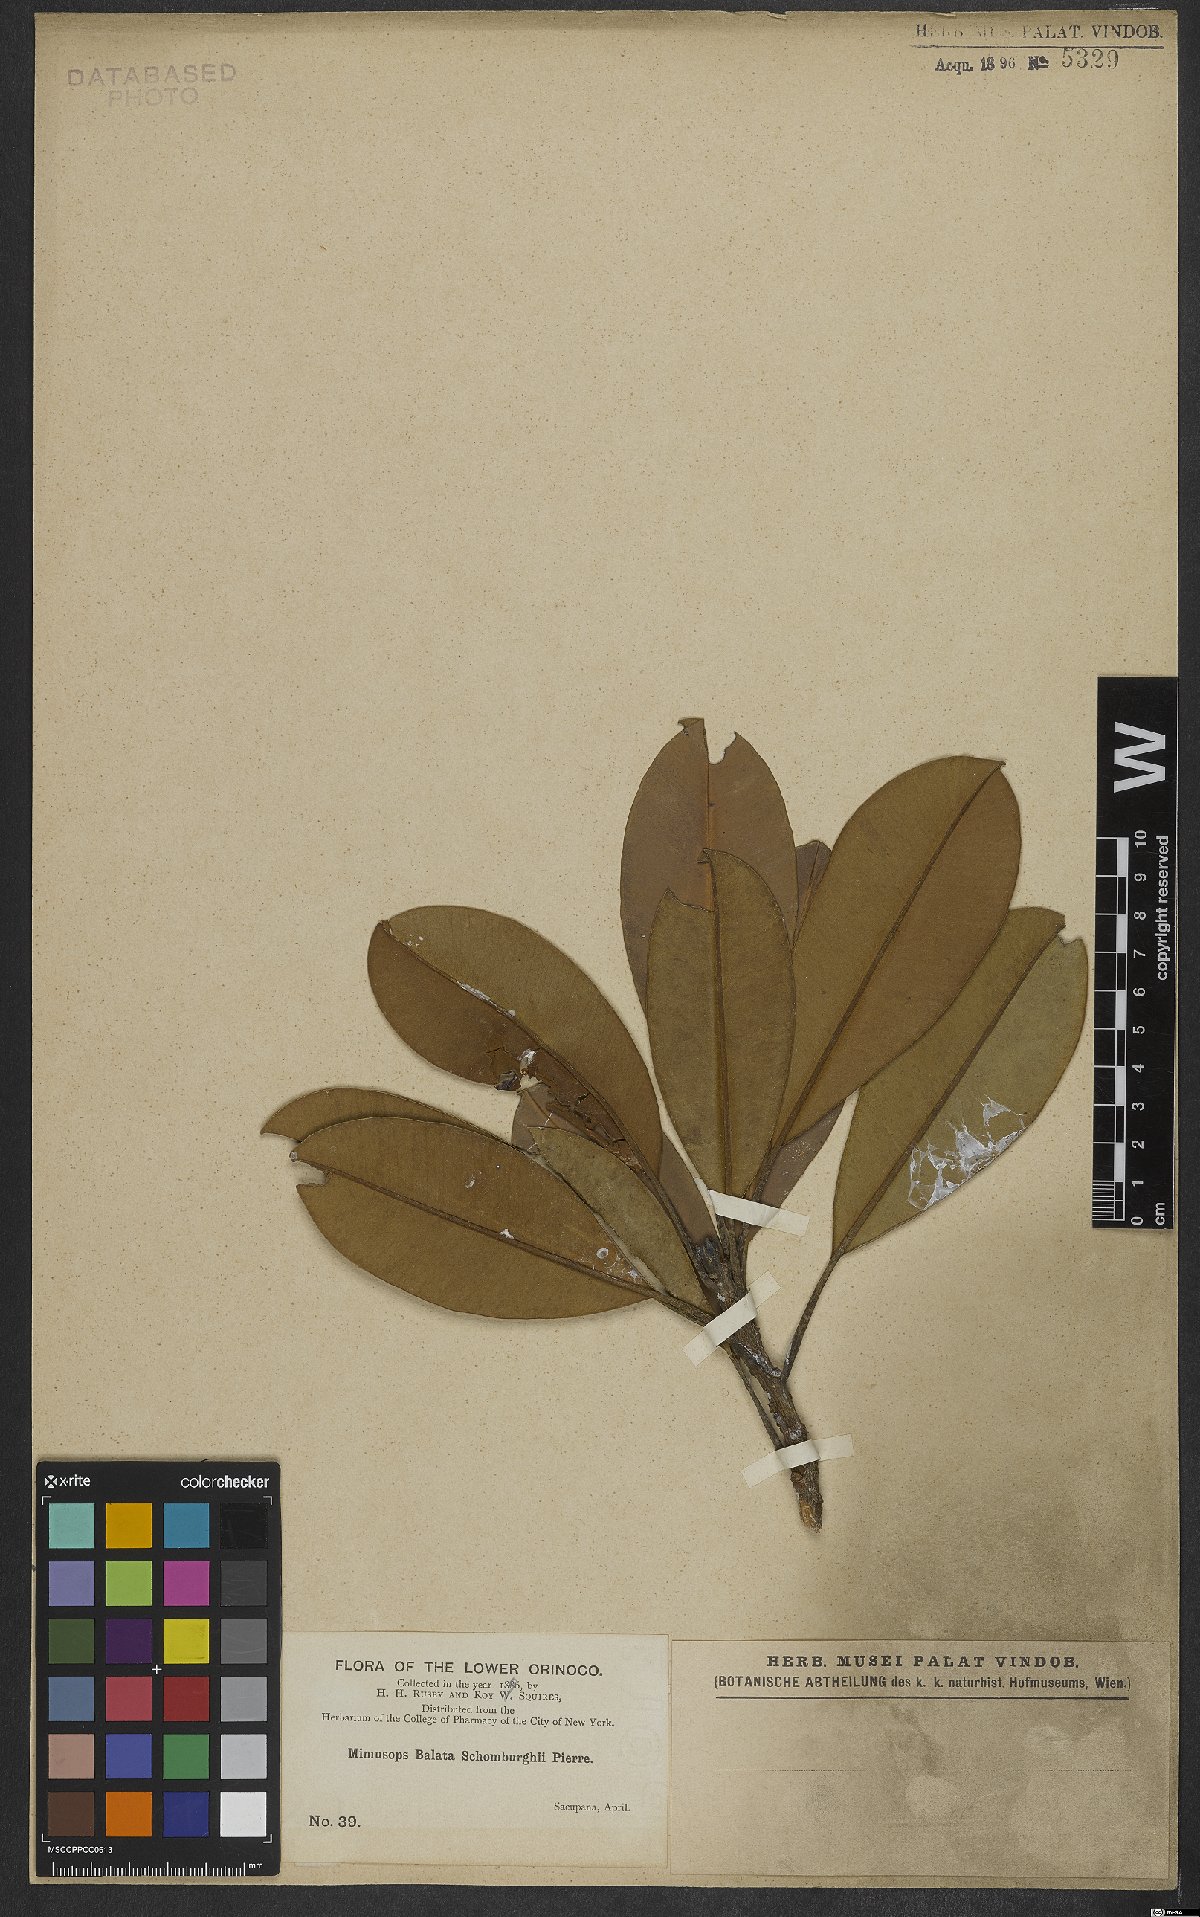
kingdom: Plantae
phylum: Tracheophyta
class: Magnoliopsida
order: Ericales
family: Sapotaceae
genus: Manilkara
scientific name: Manilkara bidentata
